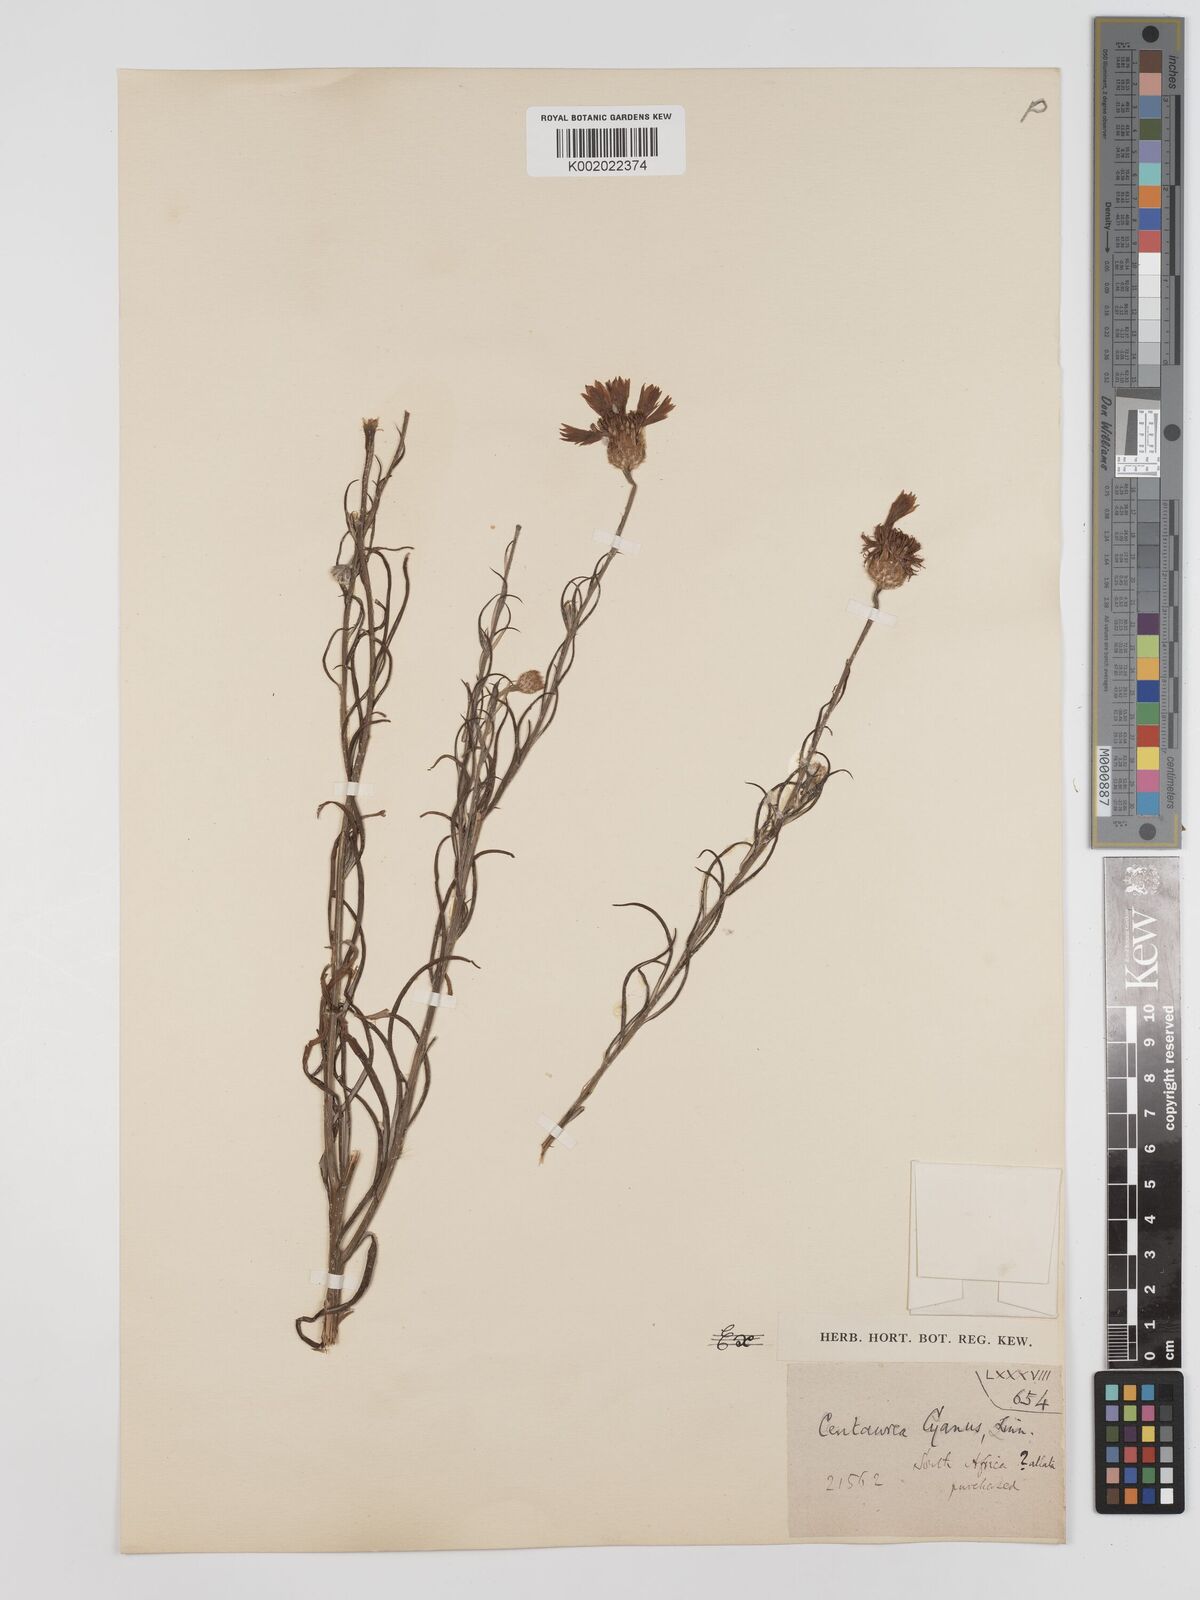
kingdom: Plantae
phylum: Tracheophyta
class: Magnoliopsida
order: Asterales
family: Asteraceae
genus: Centaurea
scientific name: Centaurea cyanus
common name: Cornflower
